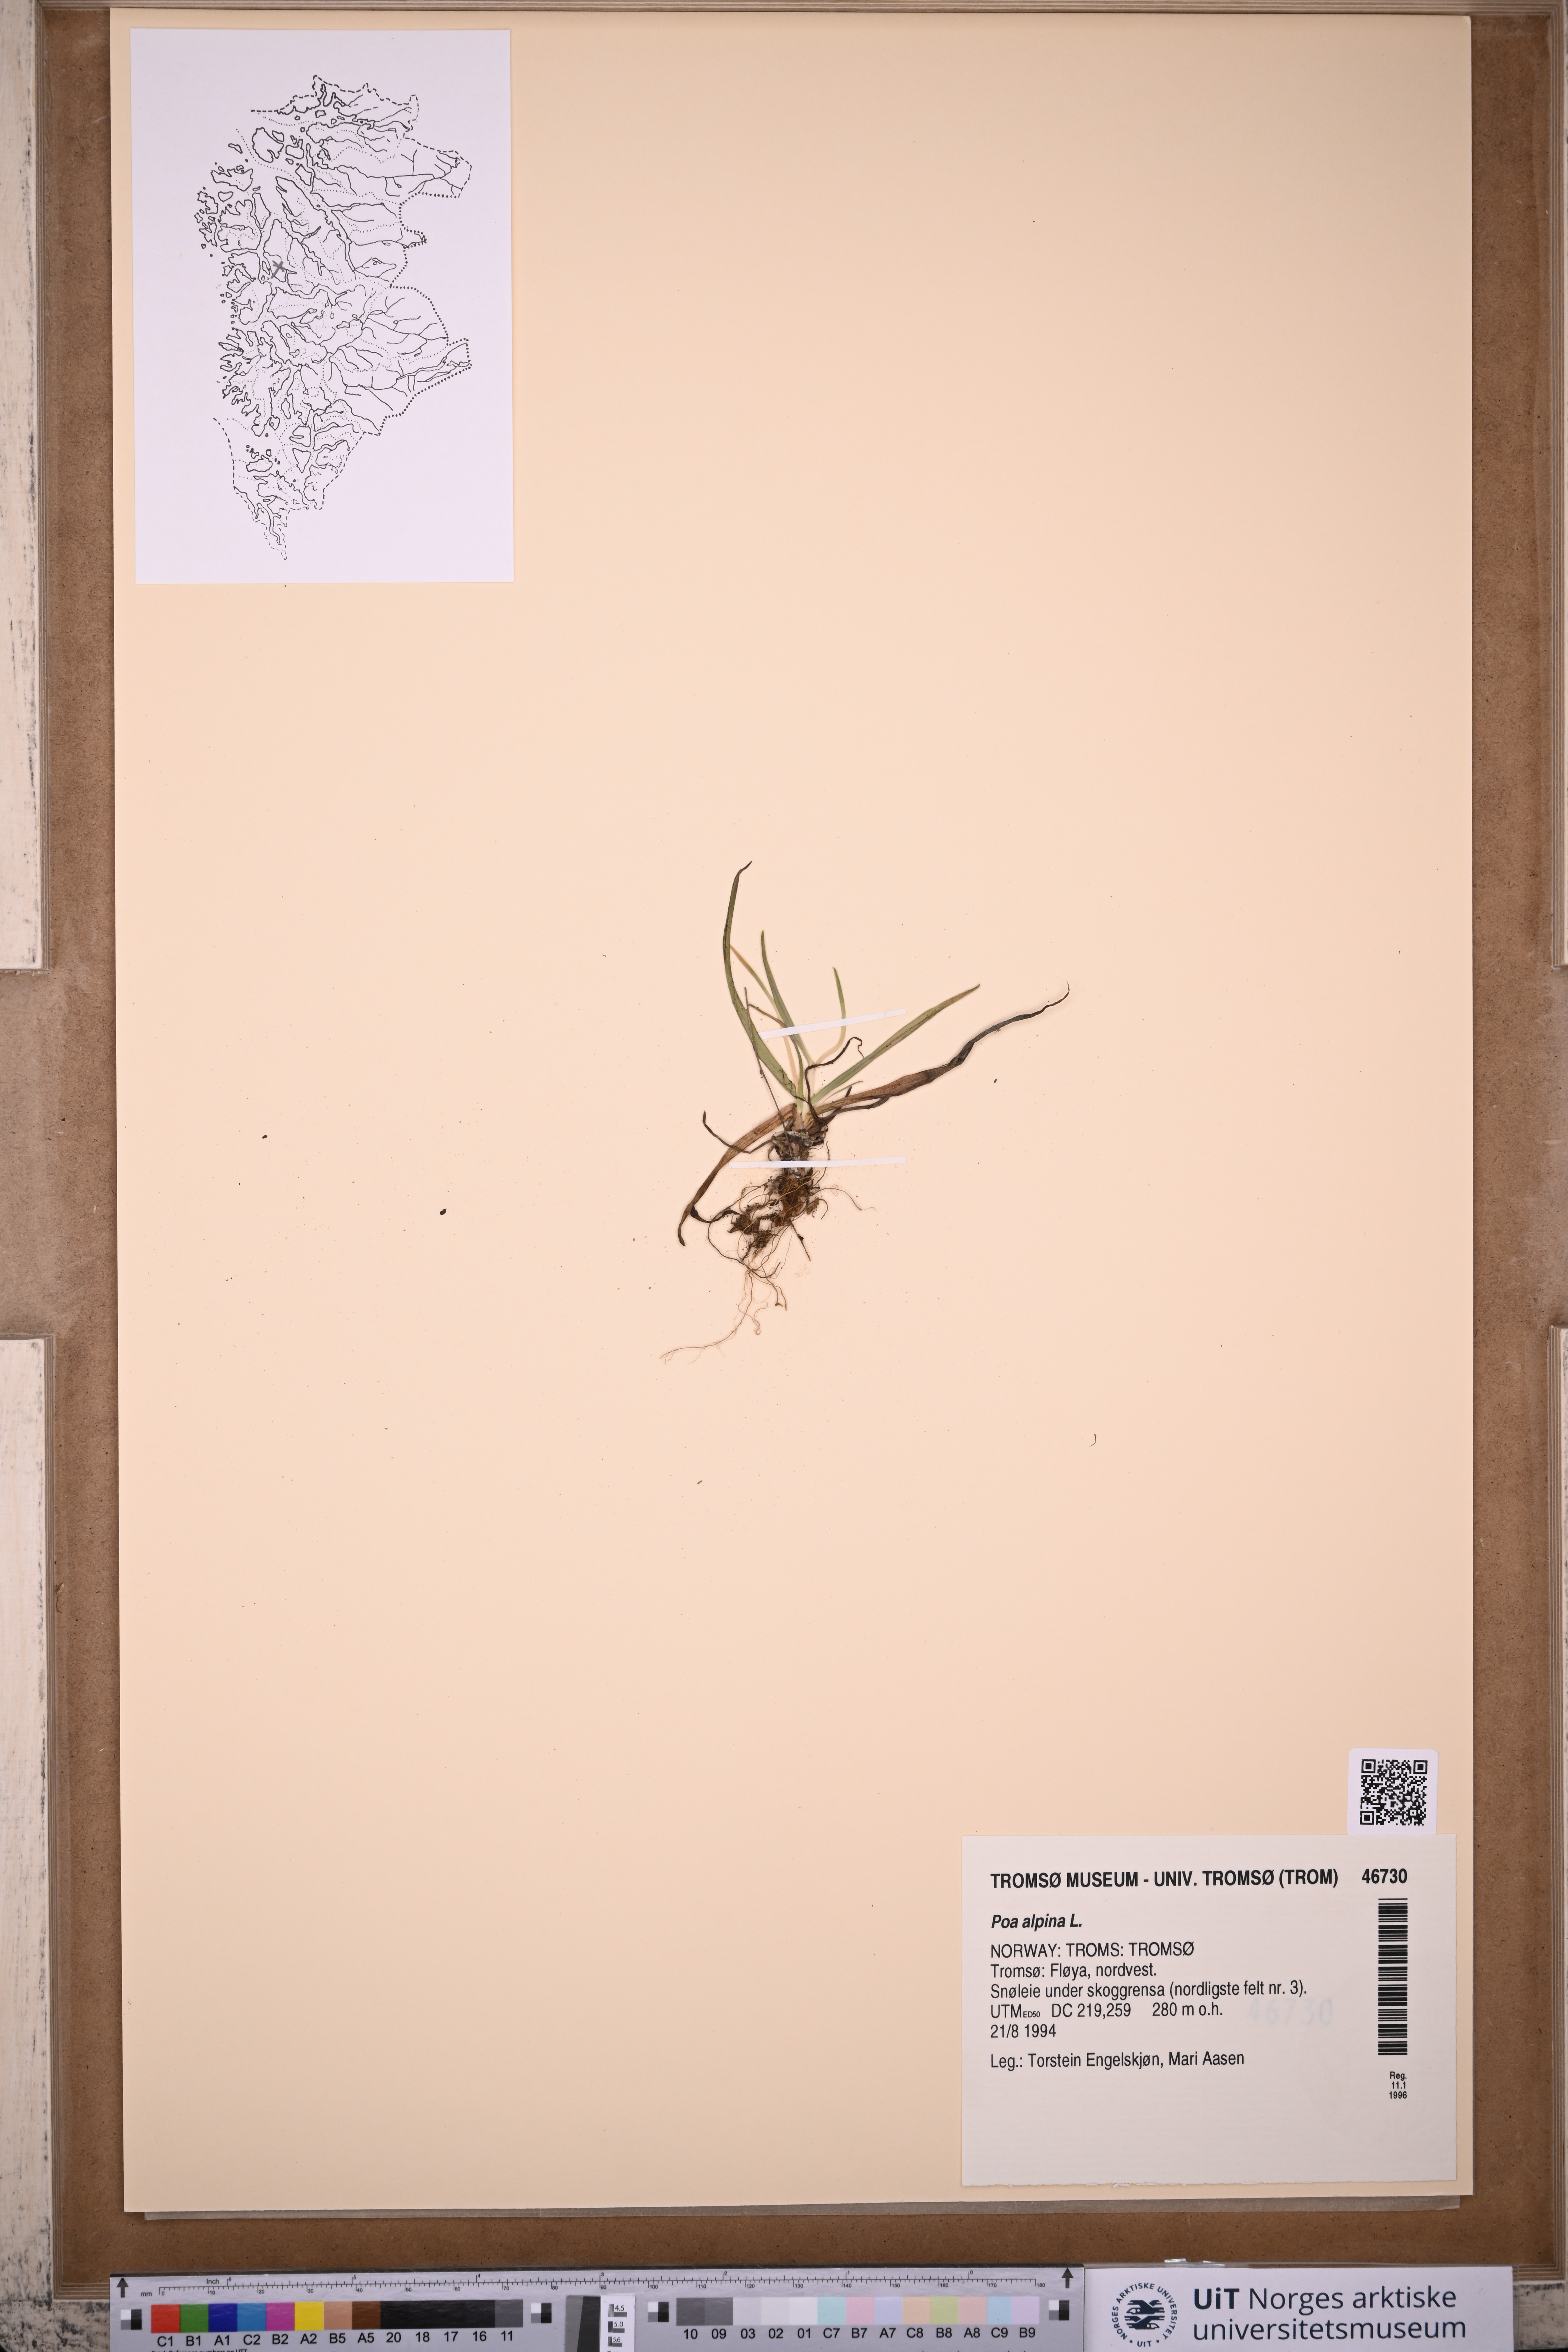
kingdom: Plantae
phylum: Tracheophyta
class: Liliopsida
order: Poales
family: Poaceae
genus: Poa
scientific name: Poa alpina
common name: Alpine bluegrass
